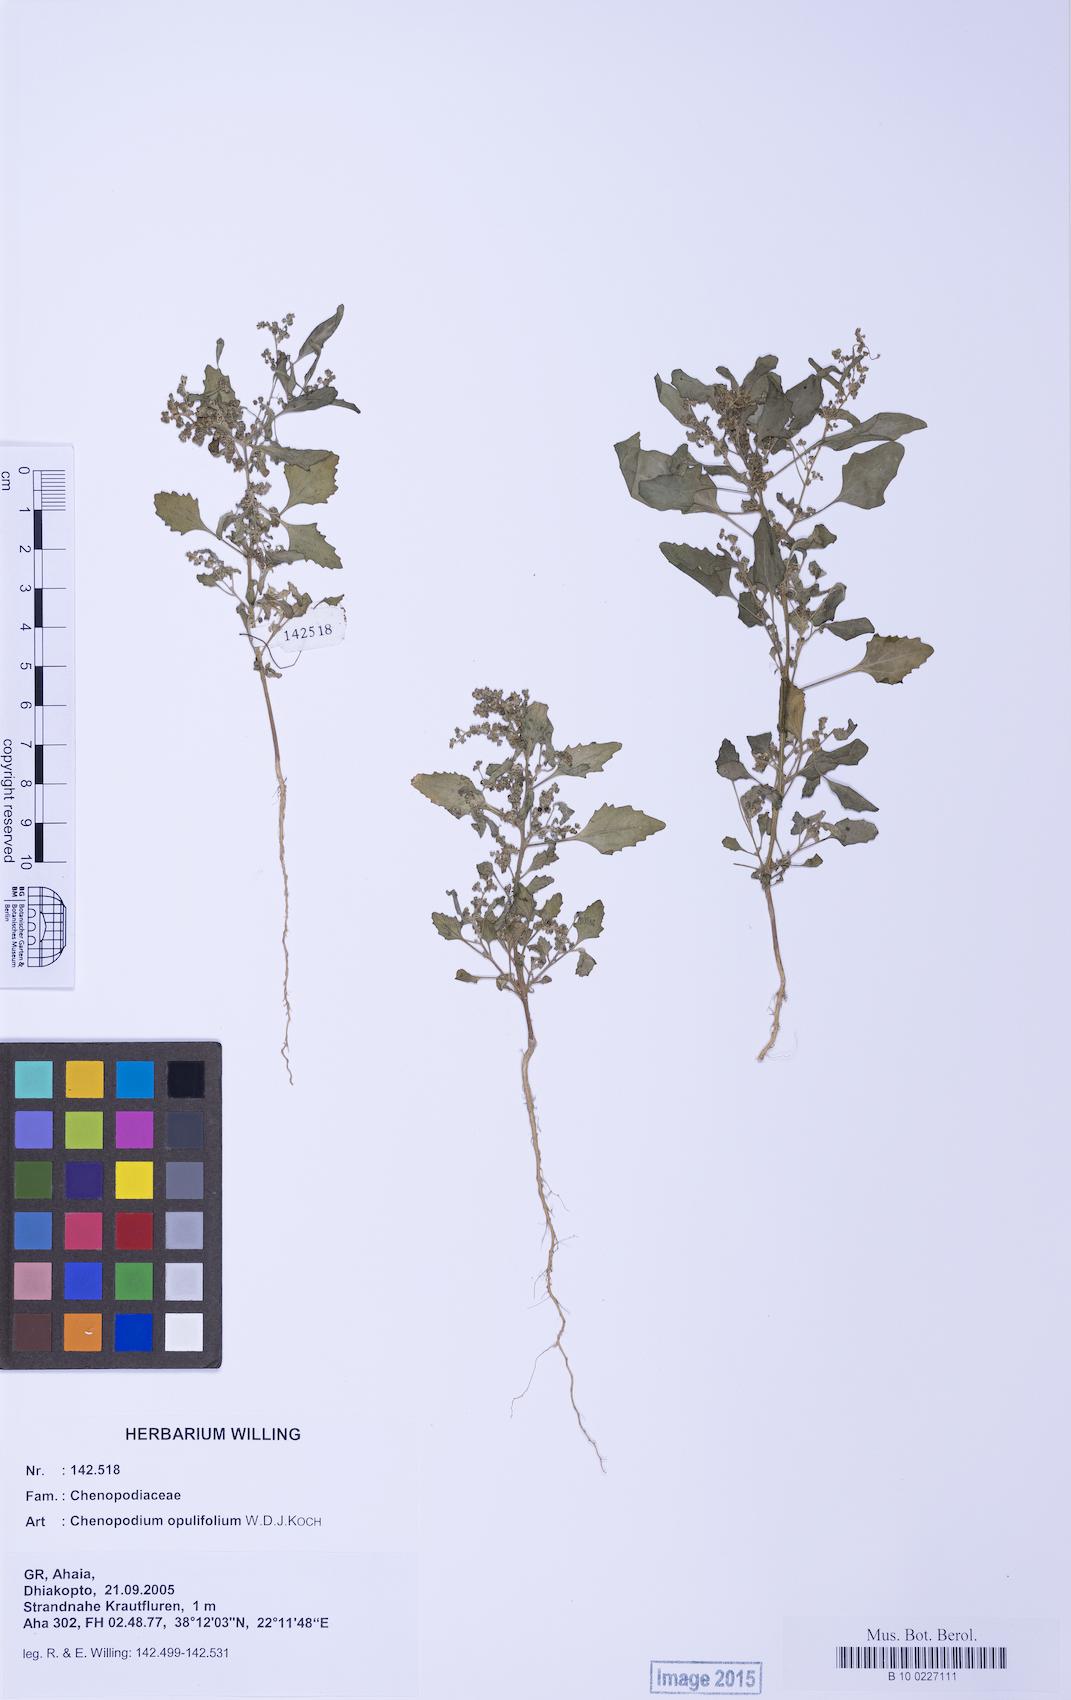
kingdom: Plantae
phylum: Tracheophyta
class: Magnoliopsida
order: Caryophyllales
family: Amaranthaceae
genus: Chenopodiastrum
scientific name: Chenopodiastrum murale
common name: Sowbane
